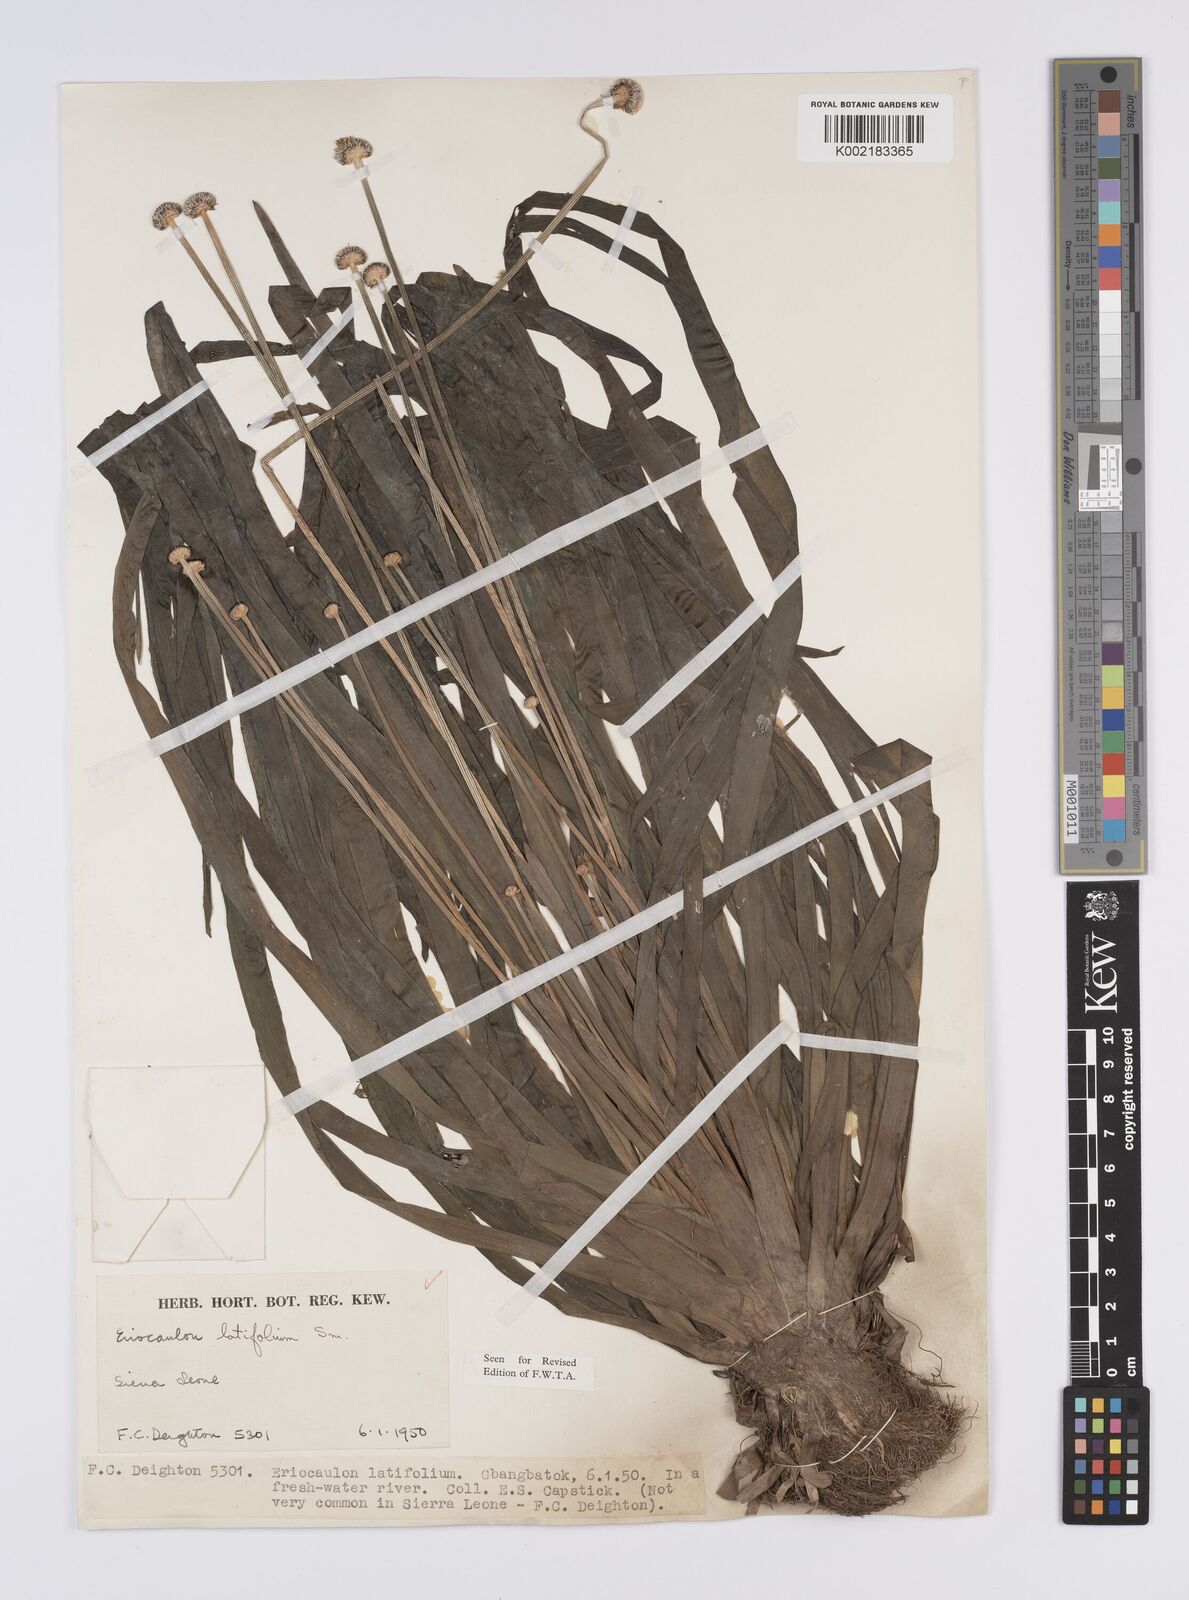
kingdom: Plantae
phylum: Tracheophyta
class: Liliopsida
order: Poales
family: Eriocaulaceae
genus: Eriocaulon
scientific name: Eriocaulon latifolium
